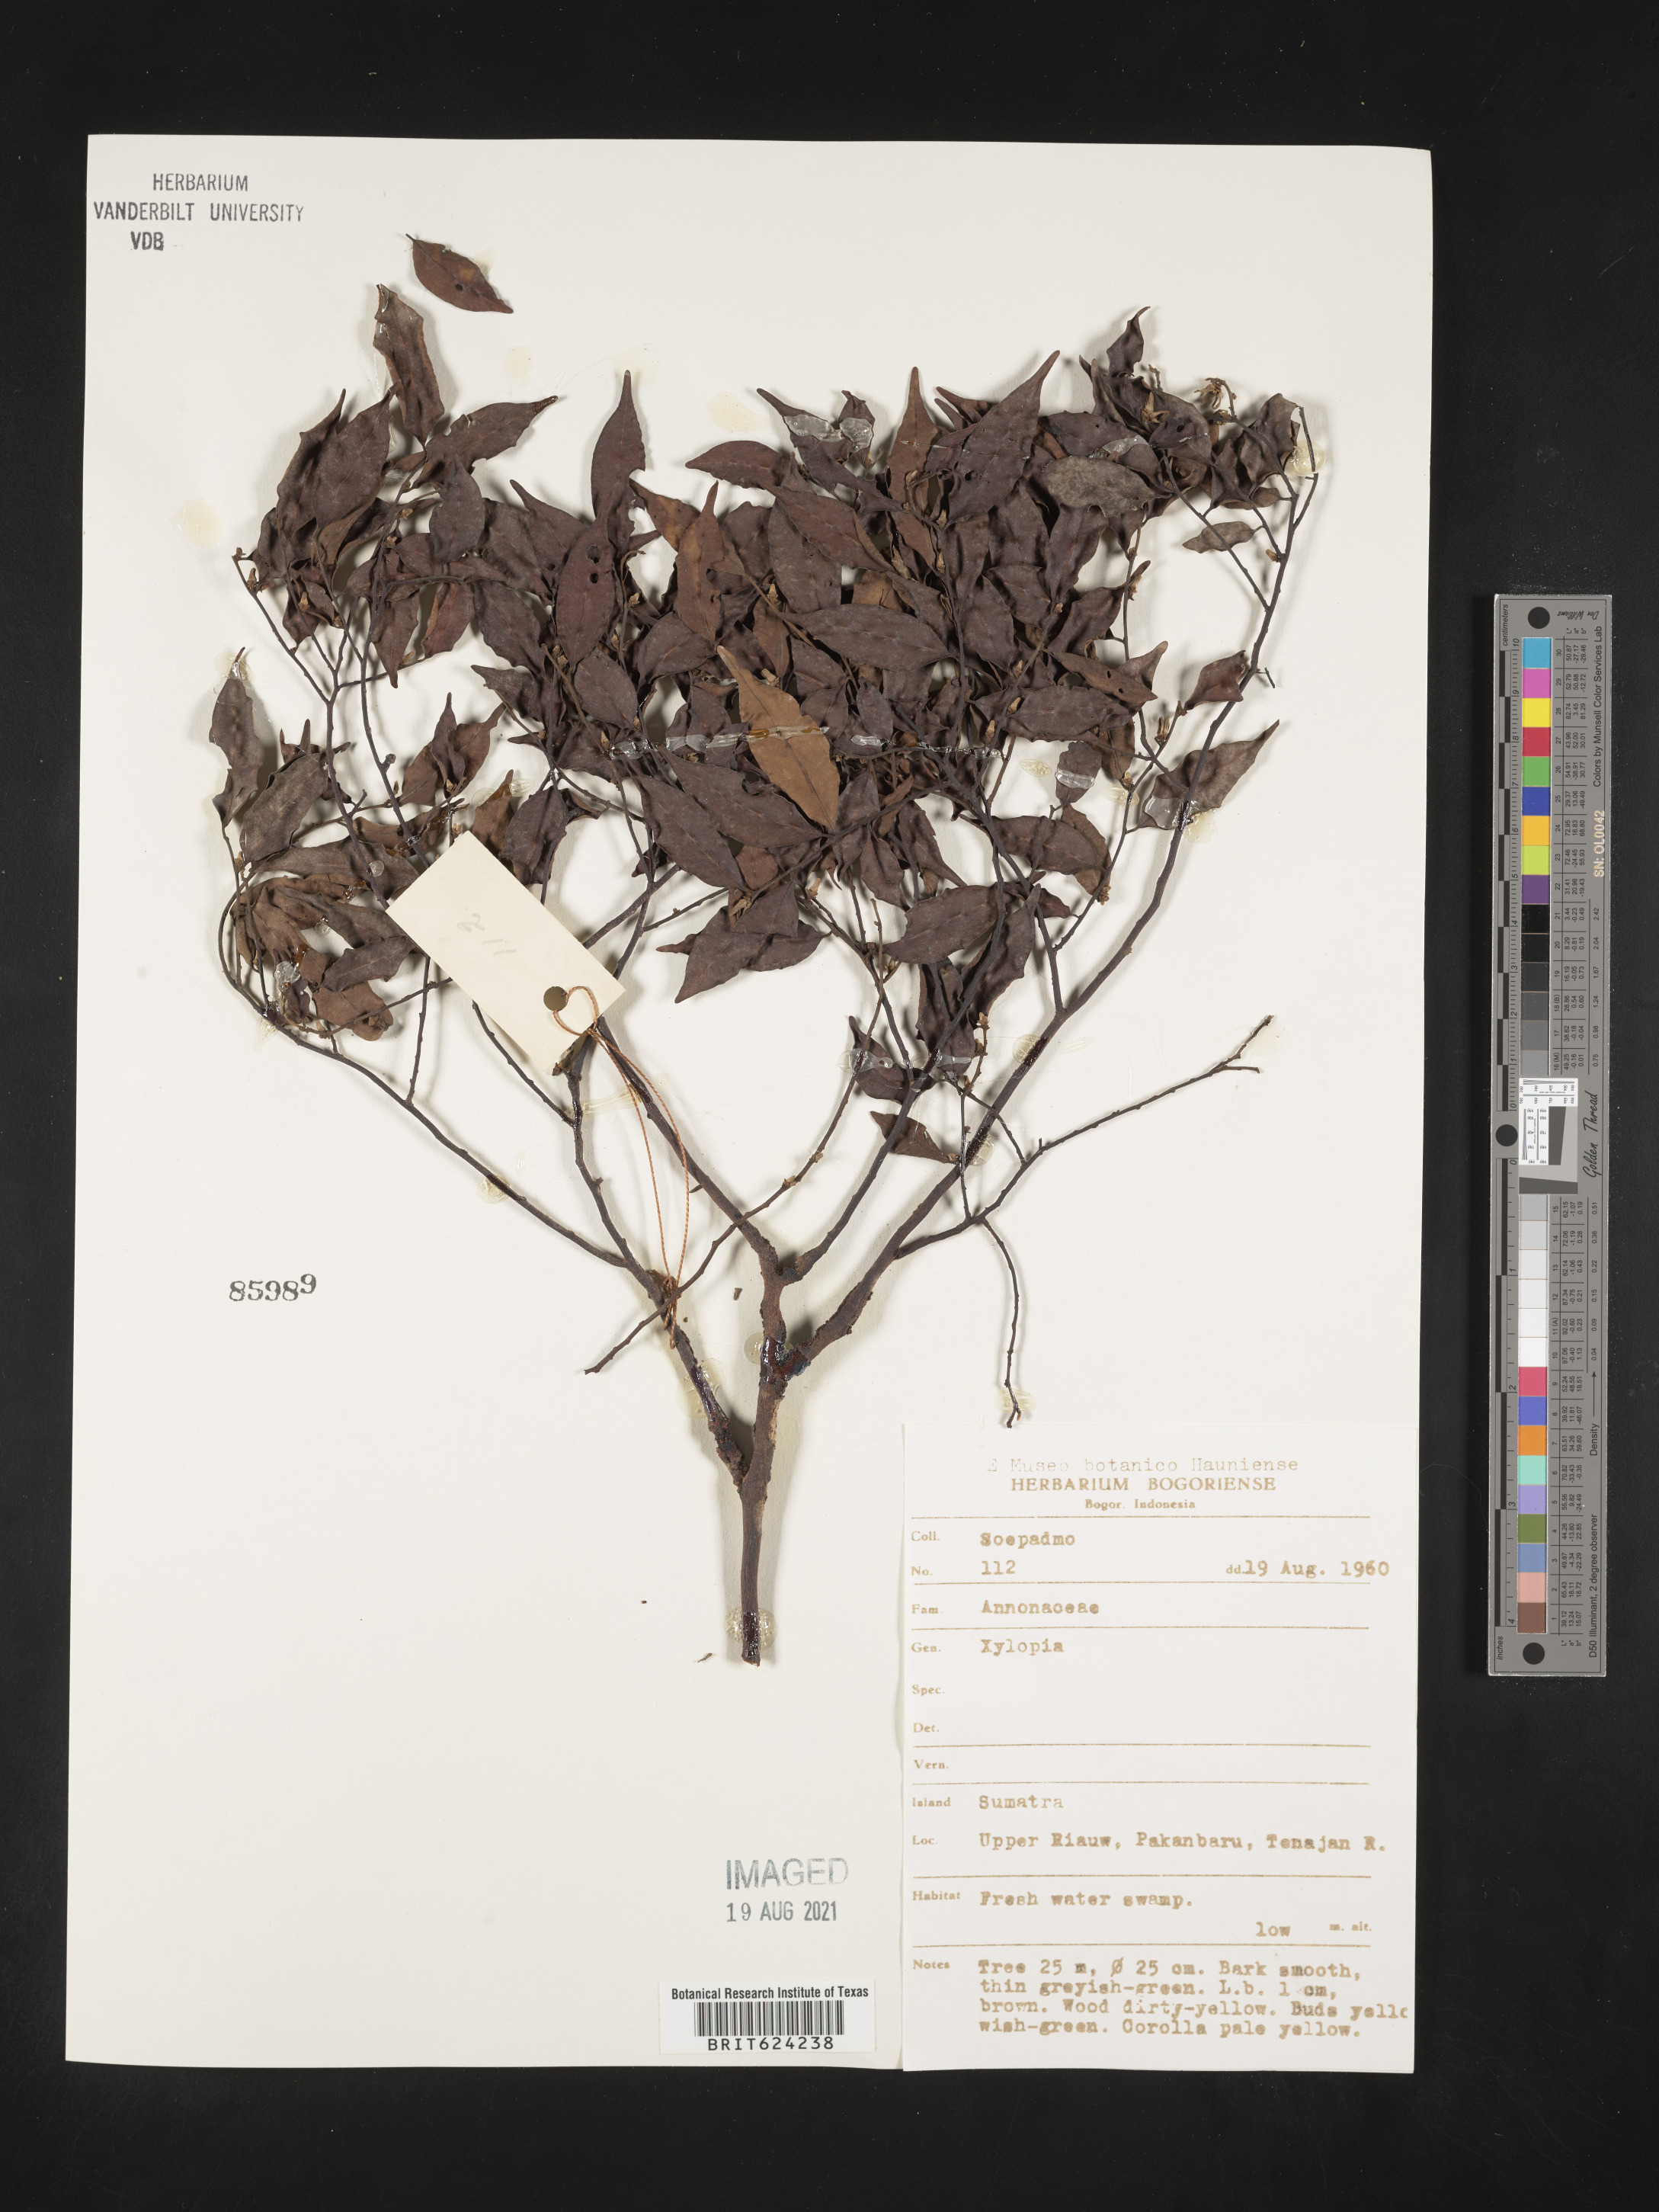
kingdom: Plantae
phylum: Tracheophyta
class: Magnoliopsida
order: Magnoliales
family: Annonaceae
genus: Xylopia
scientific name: Xylopia
